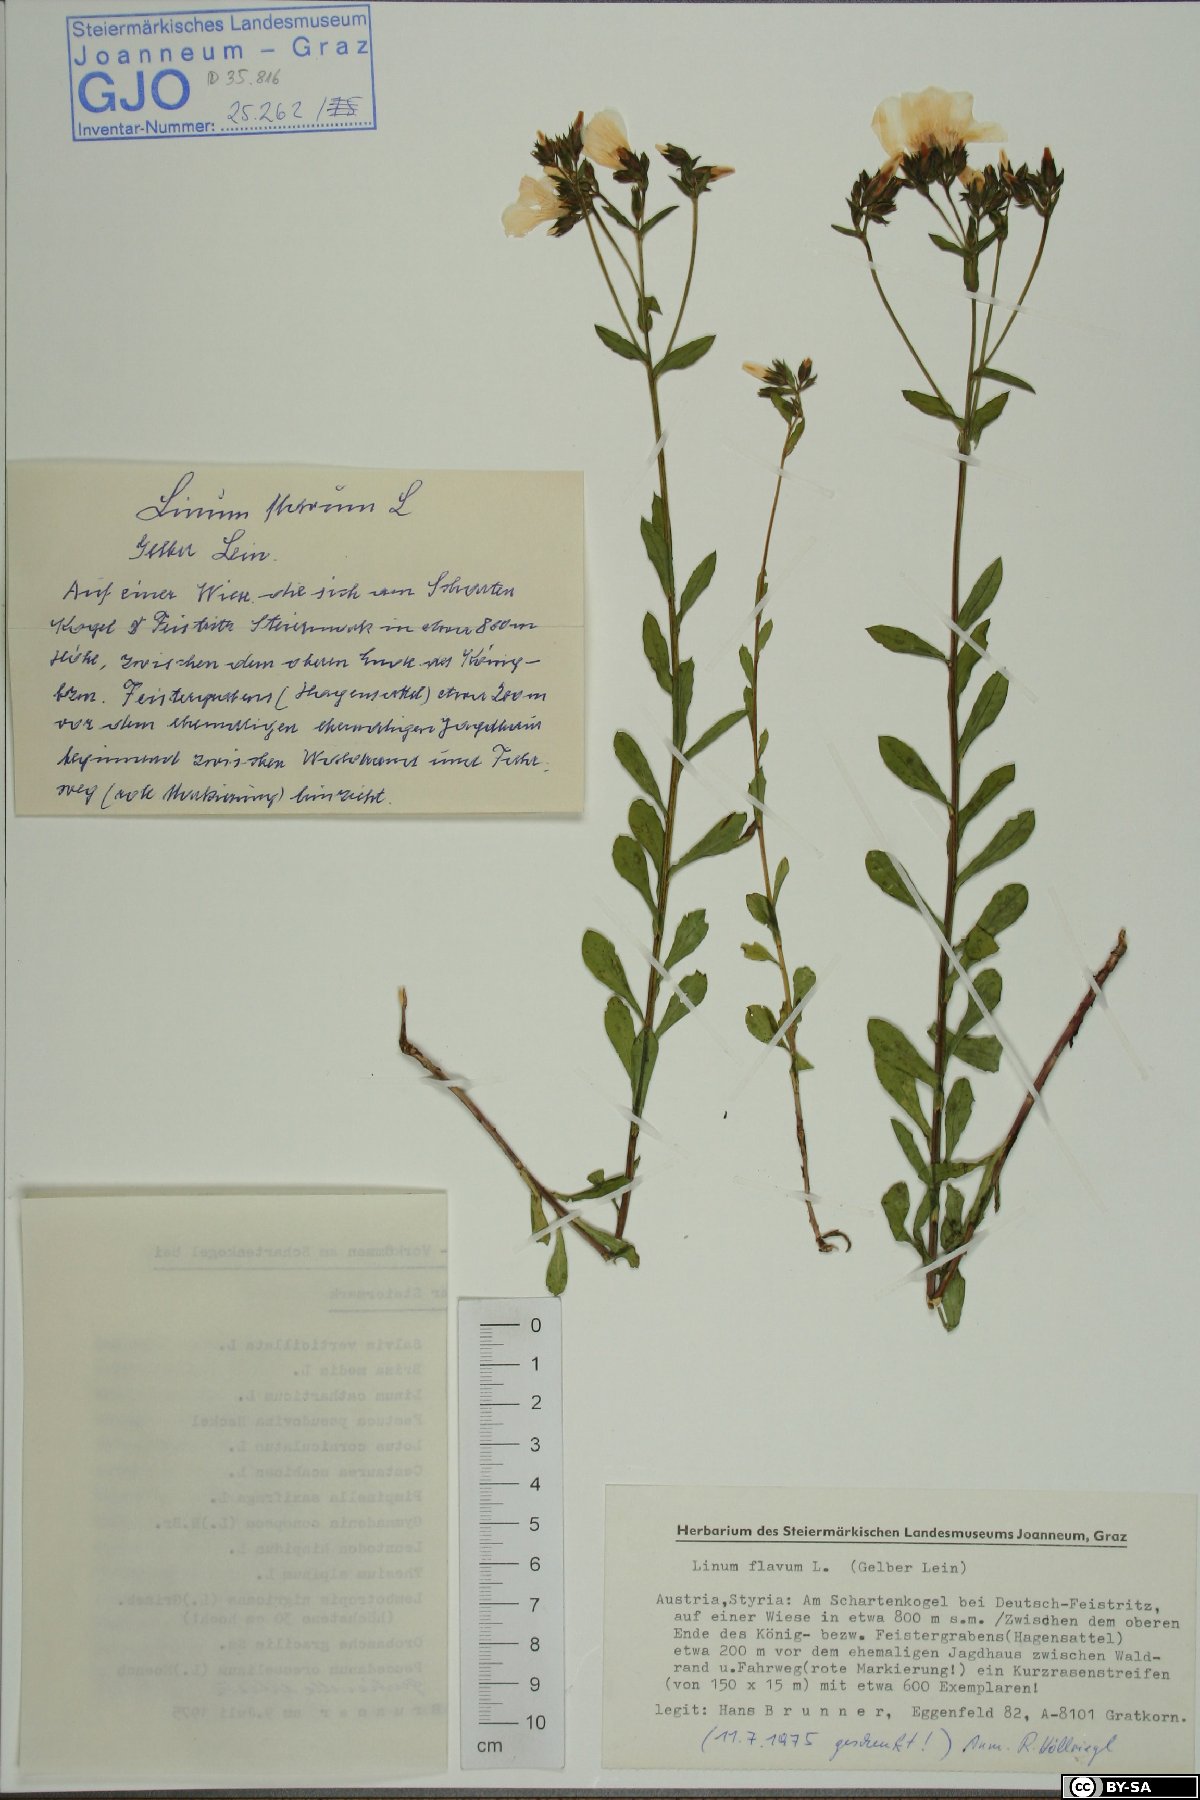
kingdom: Plantae
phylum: Tracheophyta
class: Magnoliopsida
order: Malpighiales
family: Linaceae
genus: Linum
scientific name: Linum flavum
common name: Yellow flax
